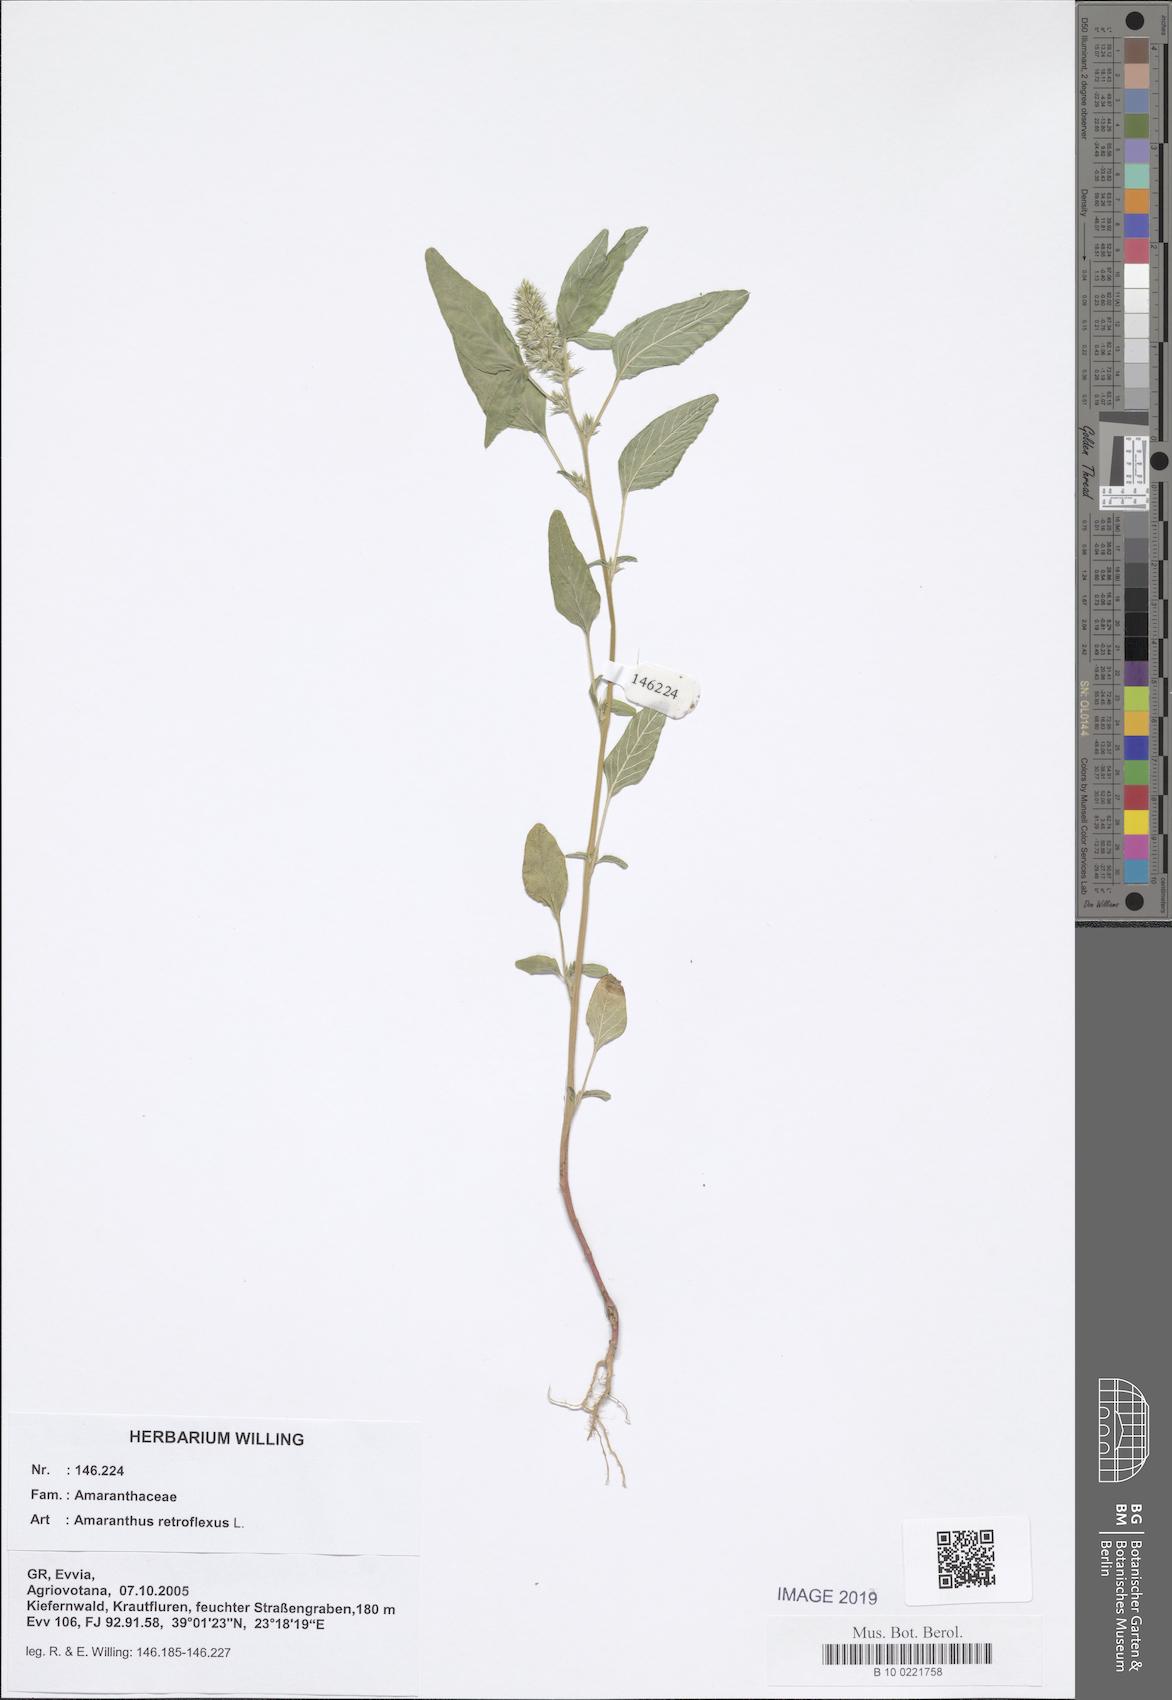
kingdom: Plantae
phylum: Tracheophyta
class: Magnoliopsida
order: Caryophyllales
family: Amaranthaceae
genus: Amaranthus
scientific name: Amaranthus retroflexus
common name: Redroot amaranth
